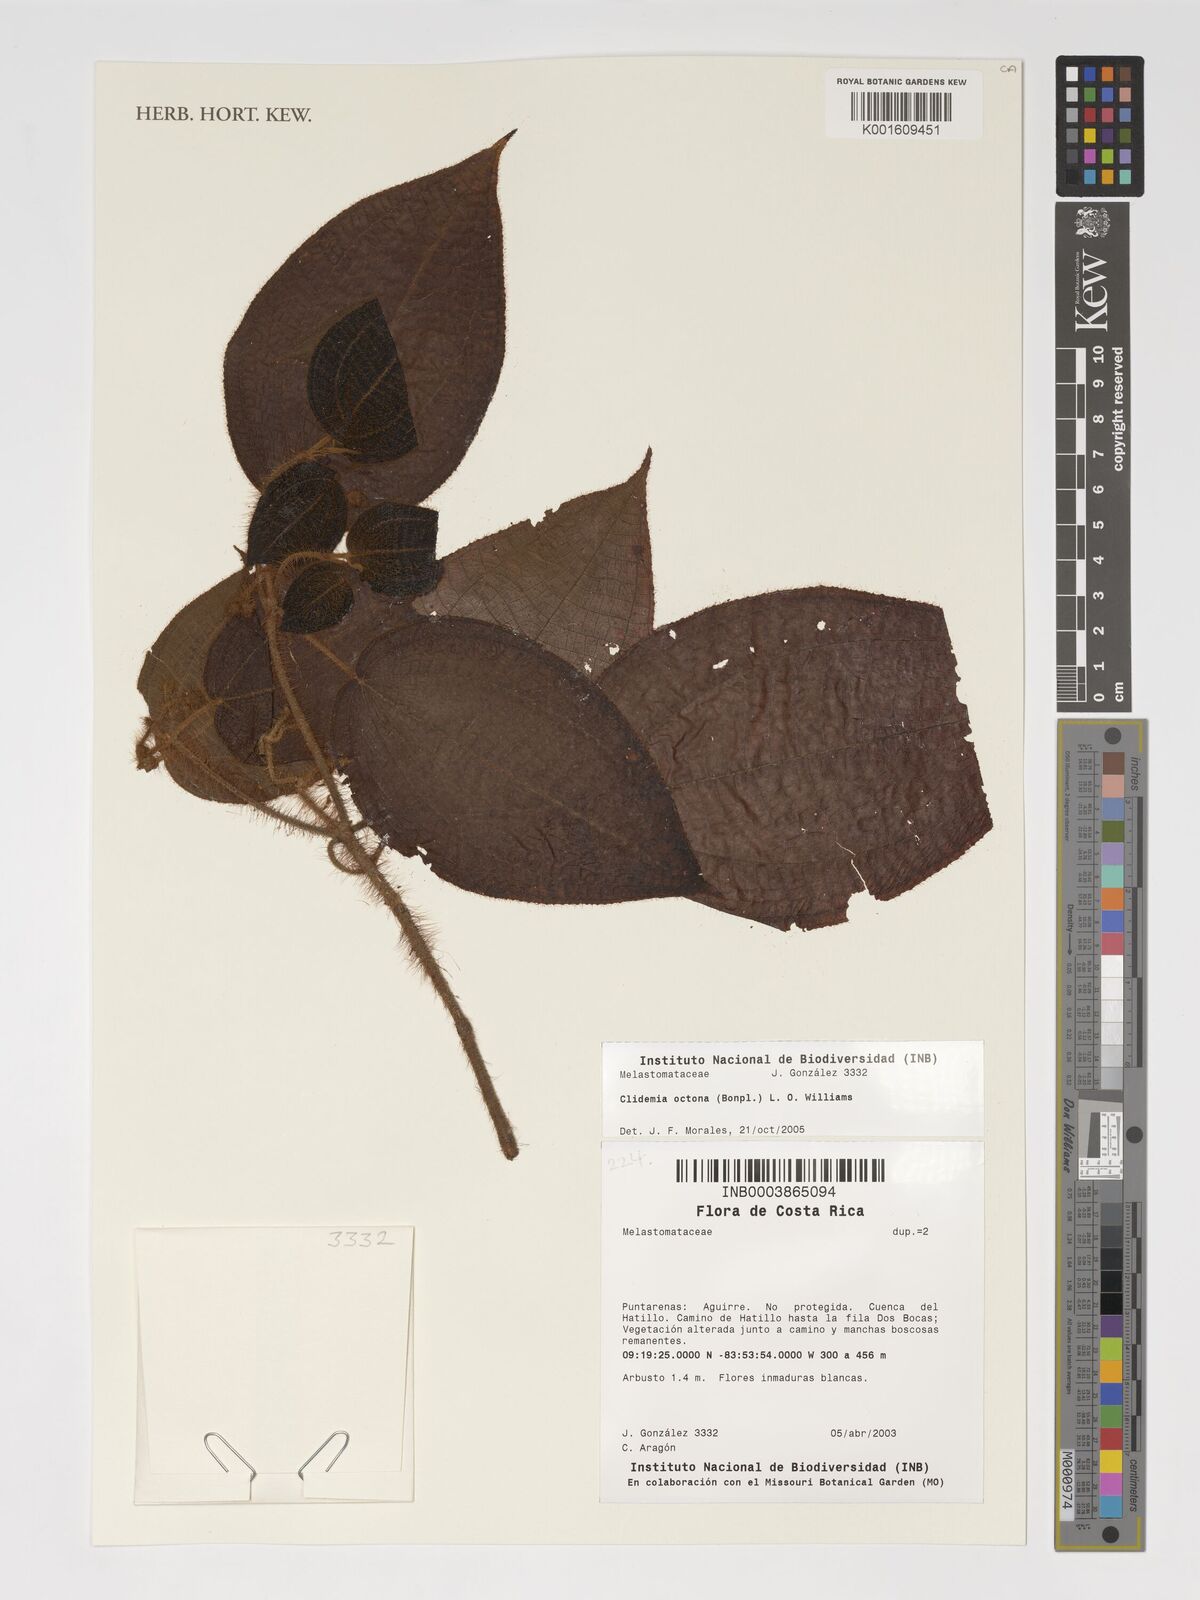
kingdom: Plantae
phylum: Tracheophyta
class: Magnoliopsida
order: Myrtales
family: Melastomataceae
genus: Miconia
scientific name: Miconia octona
